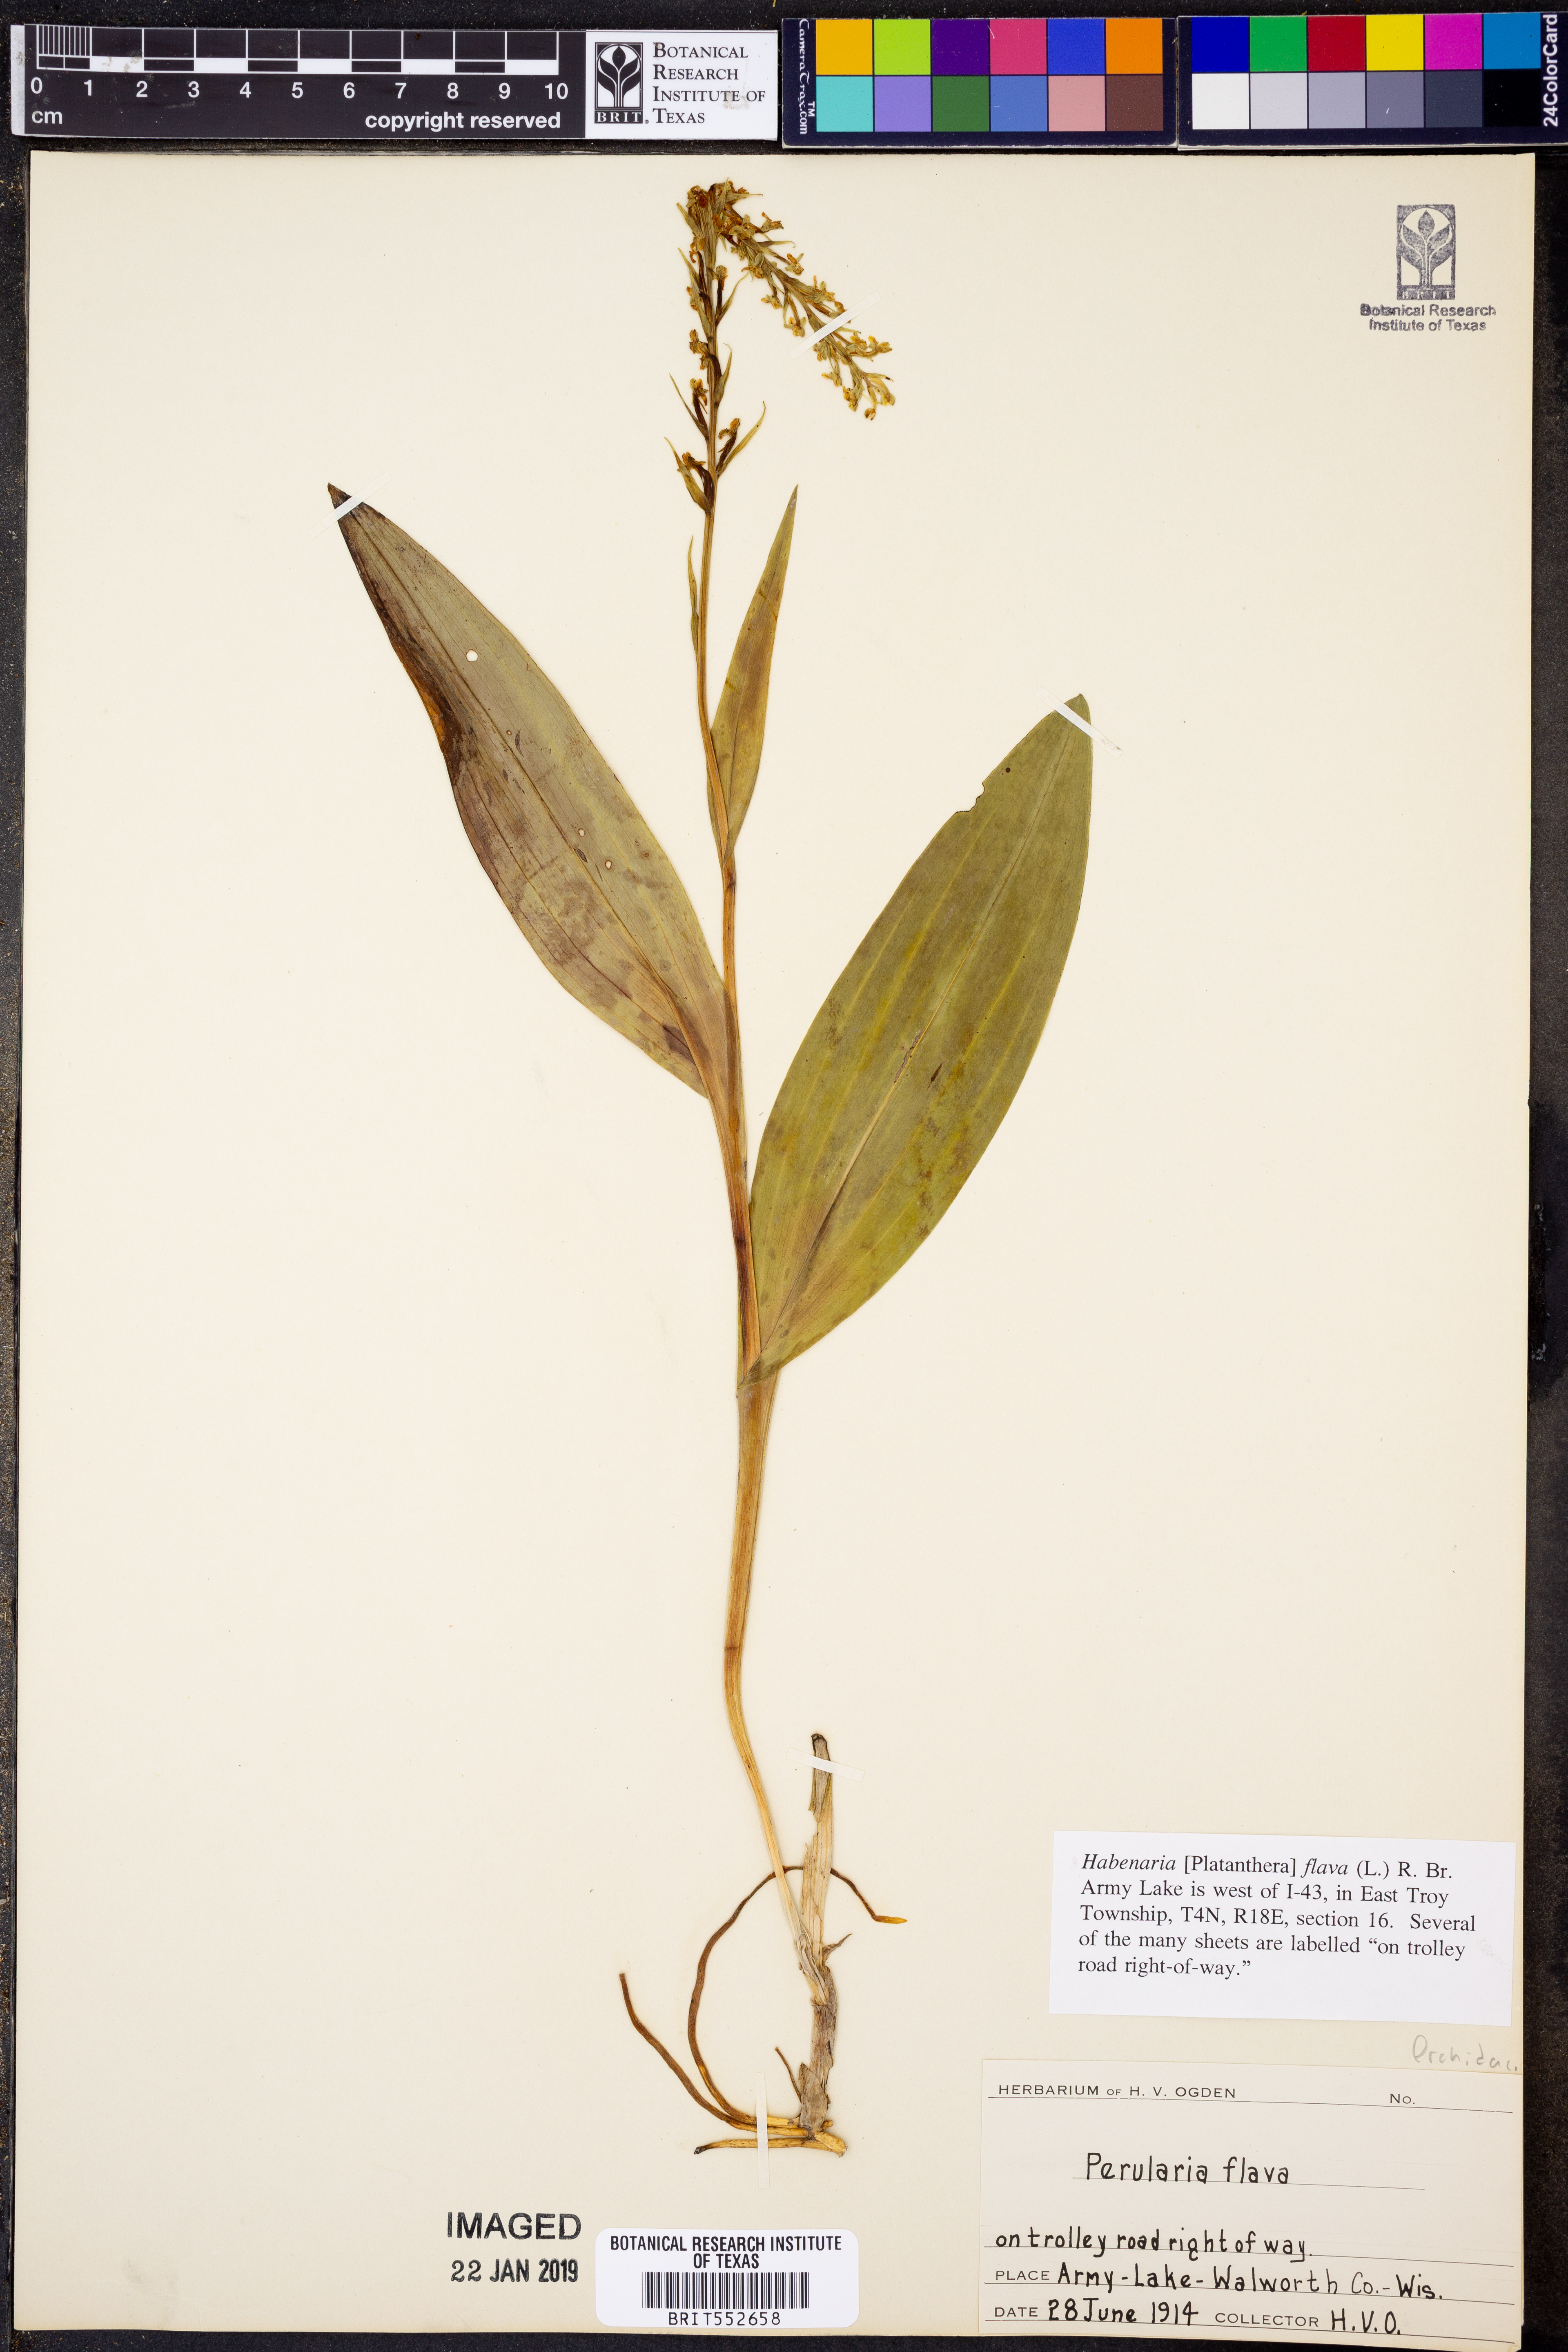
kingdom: Plantae
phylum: Tracheophyta
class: Liliopsida
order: Asparagales
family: Orchidaceae
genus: Platanthera
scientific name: Platanthera flava
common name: Gypsy-spikes
